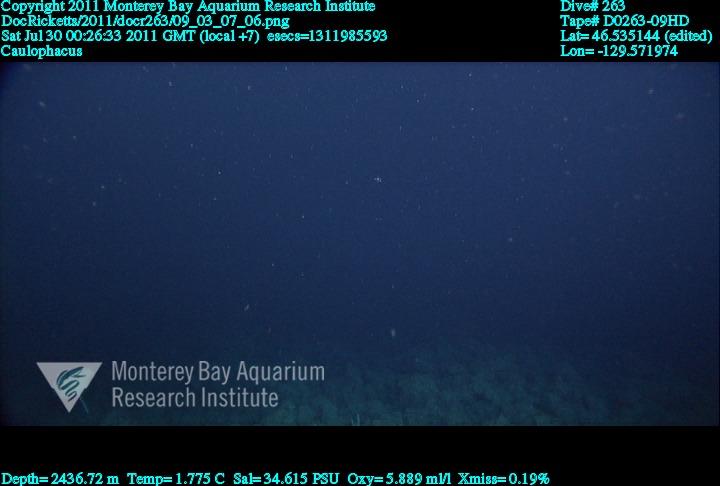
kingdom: Animalia
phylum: Porifera
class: Hexactinellida
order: Lyssacinosida
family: Rossellidae
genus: Caulophacus
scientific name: Caulophacus
